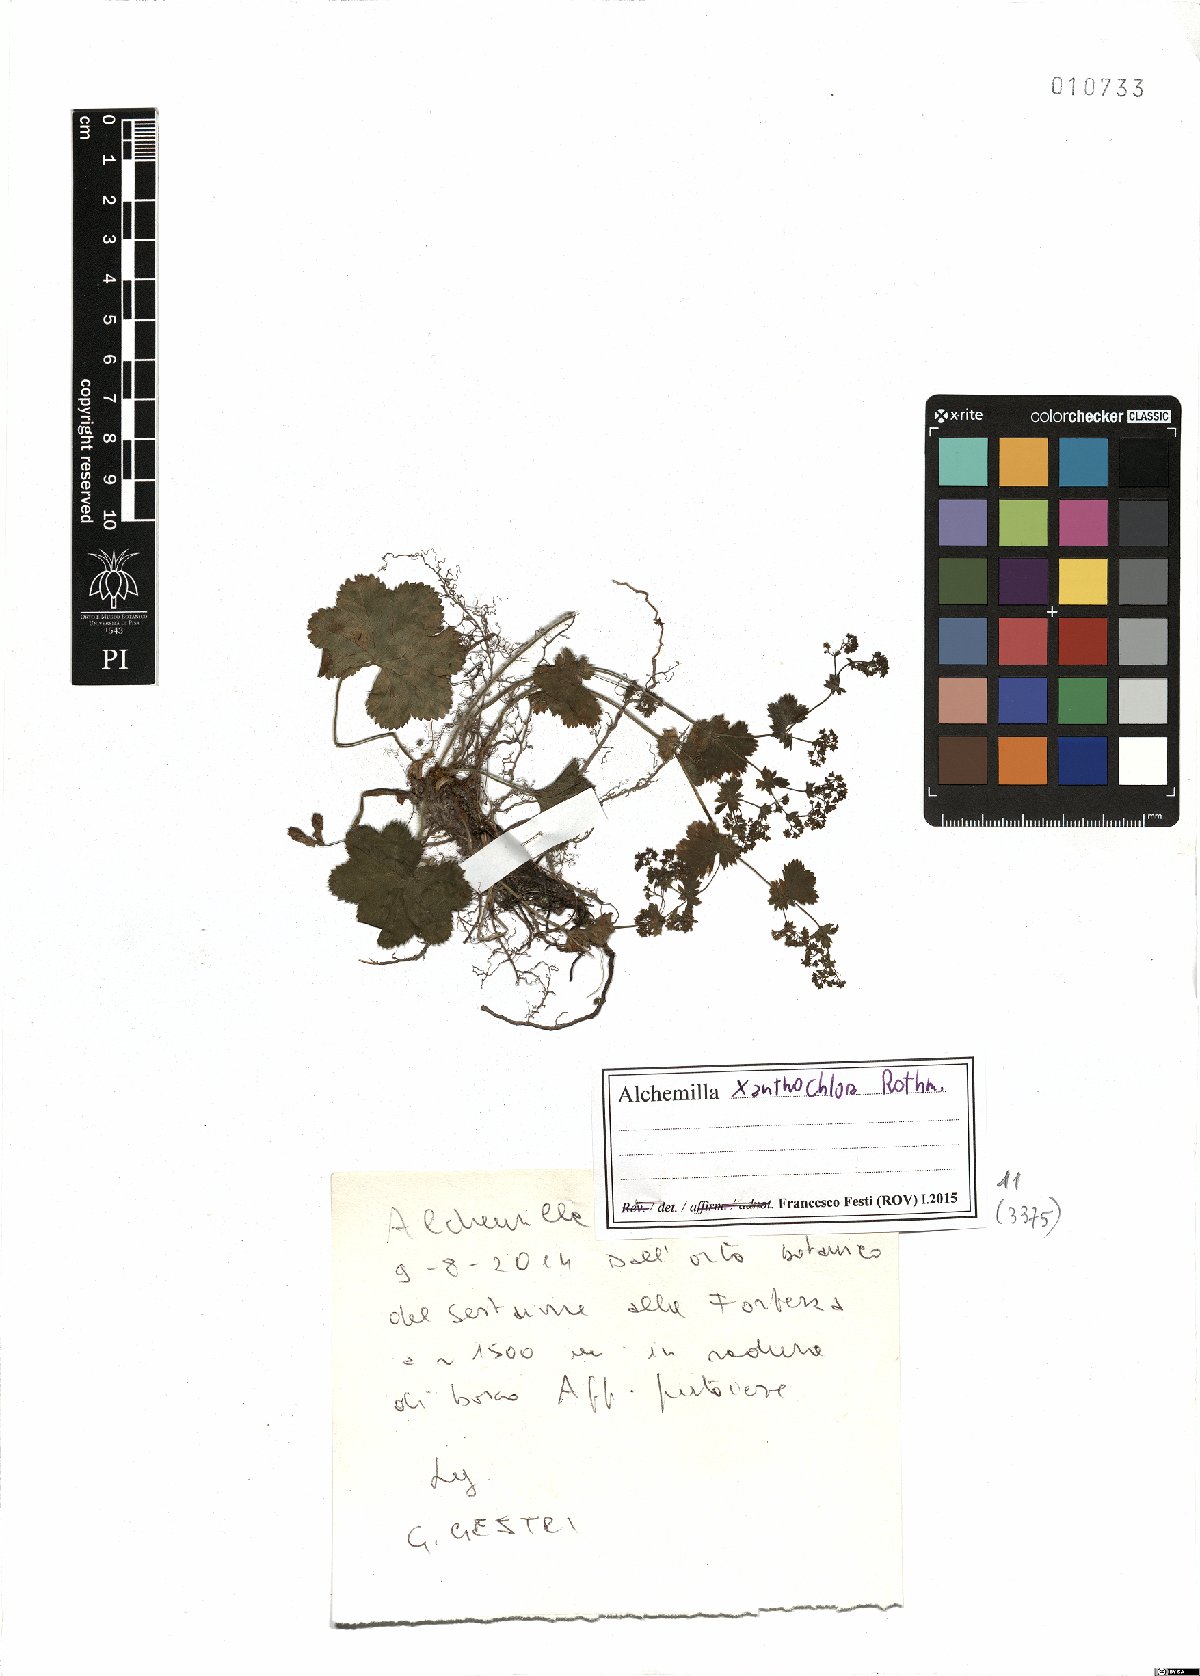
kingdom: Plantae
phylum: Tracheophyta
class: Magnoliopsida
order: Rosales
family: Rosaceae
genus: Alchemilla
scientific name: Alchemilla xanthochlora
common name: Intermediate lady's-mantle
